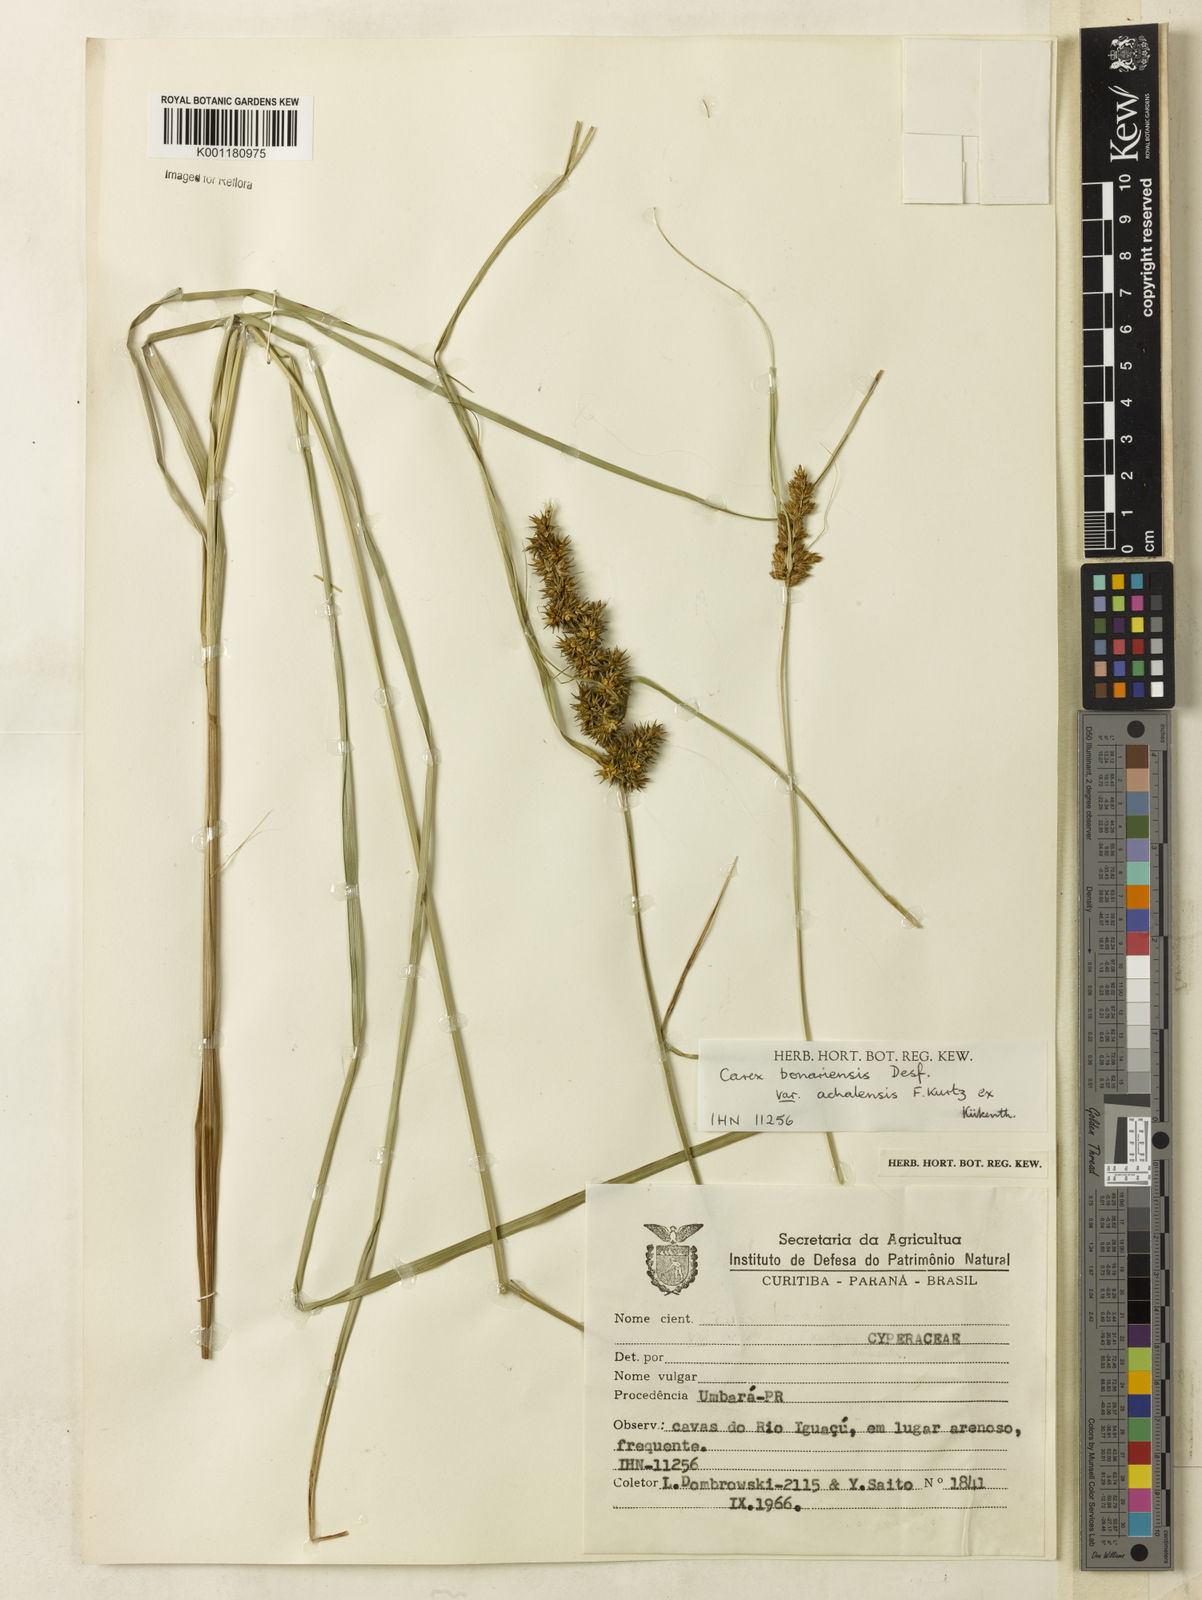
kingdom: Plantae
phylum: Tracheophyta
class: Liliopsida
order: Poales
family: Cyperaceae
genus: Carex
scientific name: Carex bonariensis
